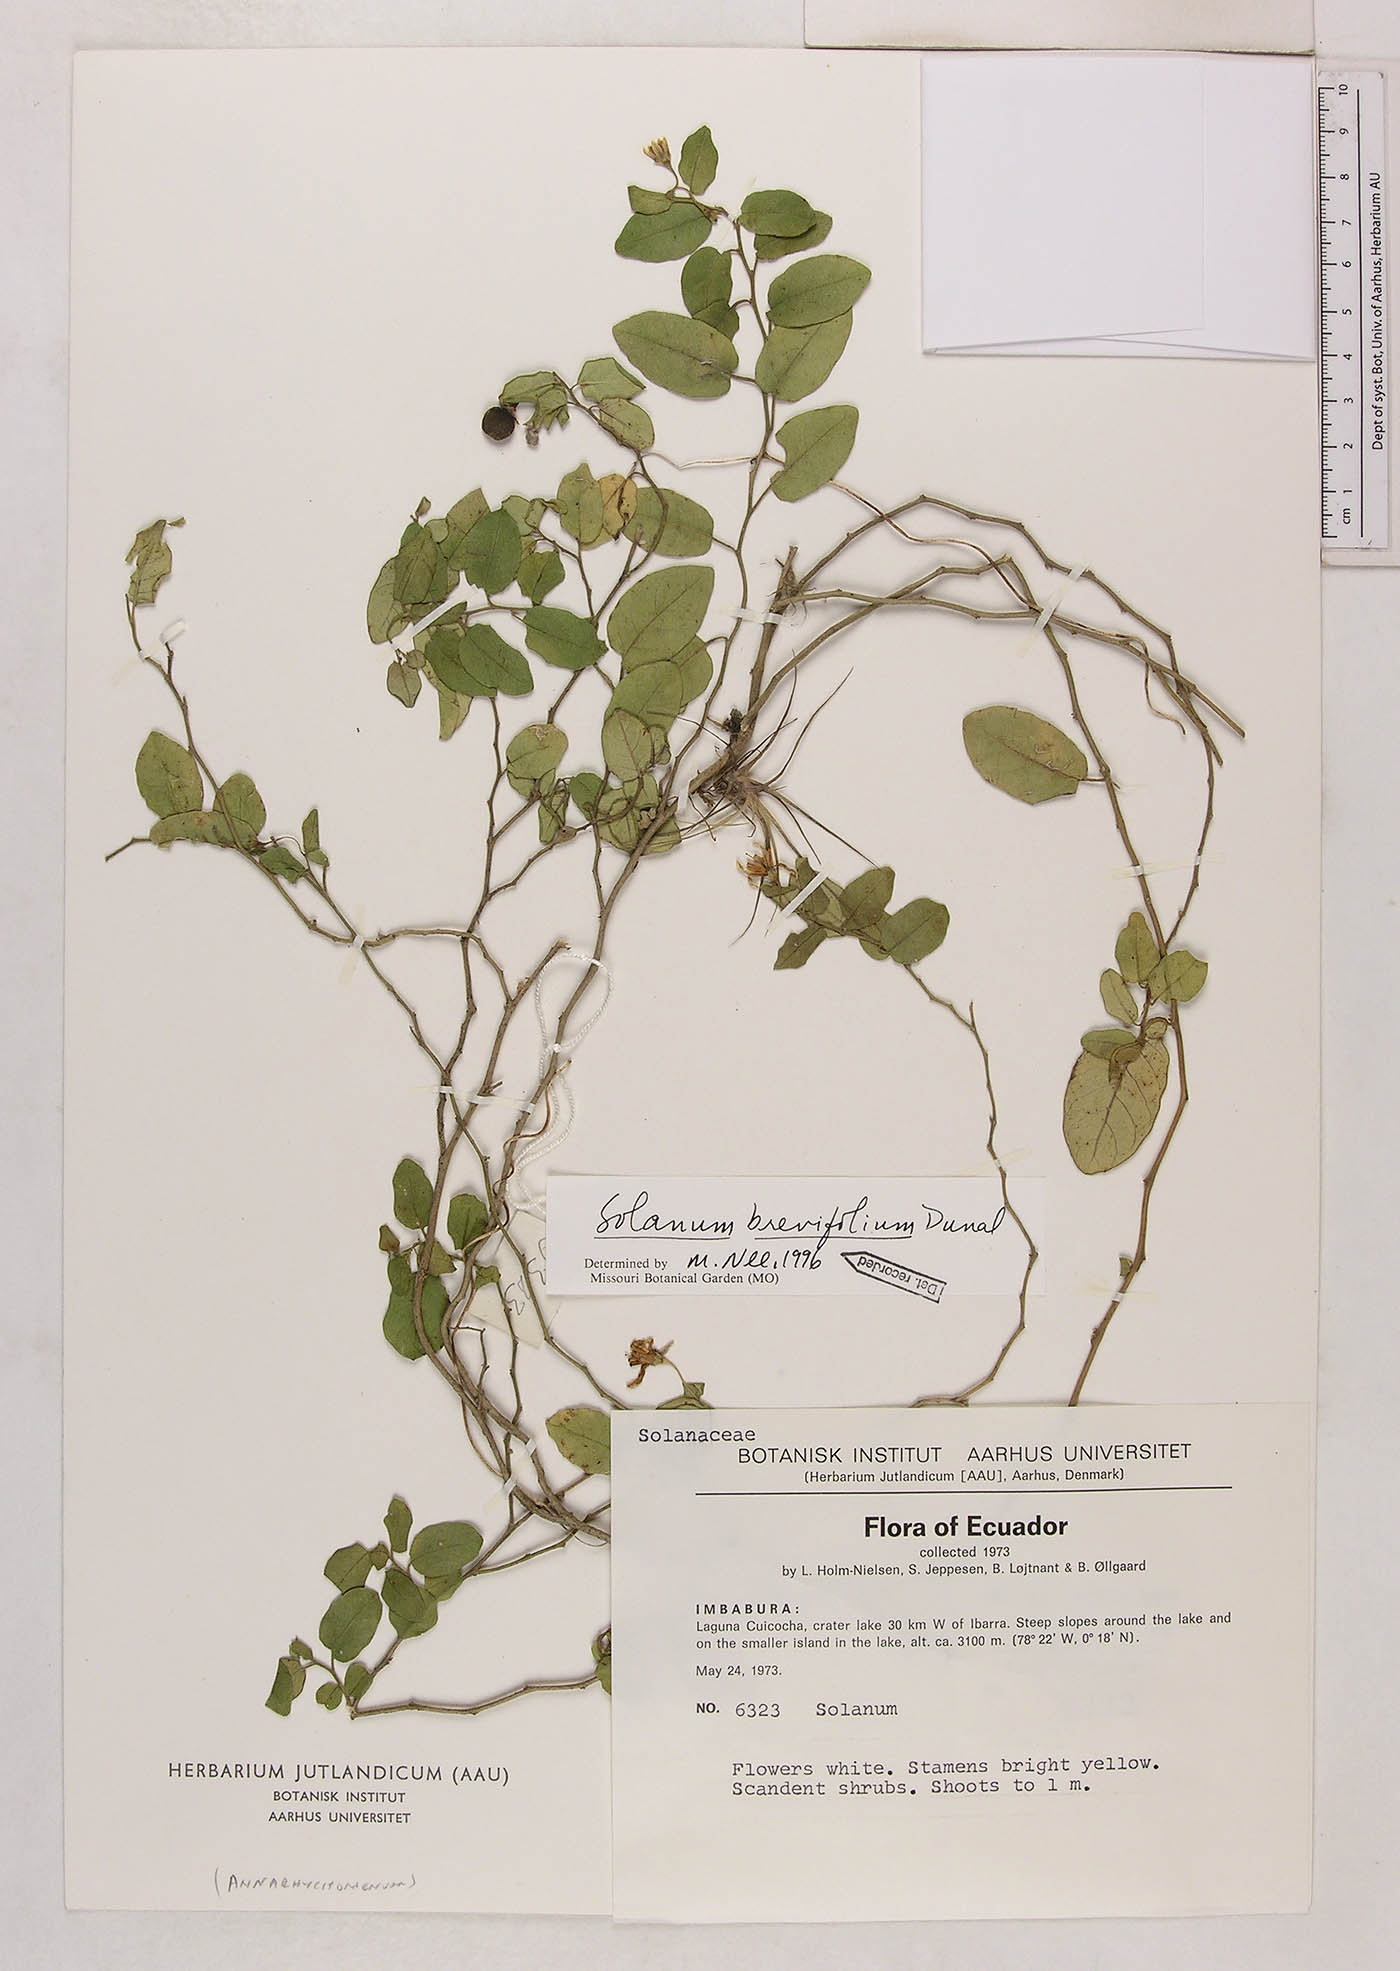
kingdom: Plantae
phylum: Tracheophyta
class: Magnoliopsida
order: Solanales
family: Solanaceae
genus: Solanum
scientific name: Solanum brevifolium
